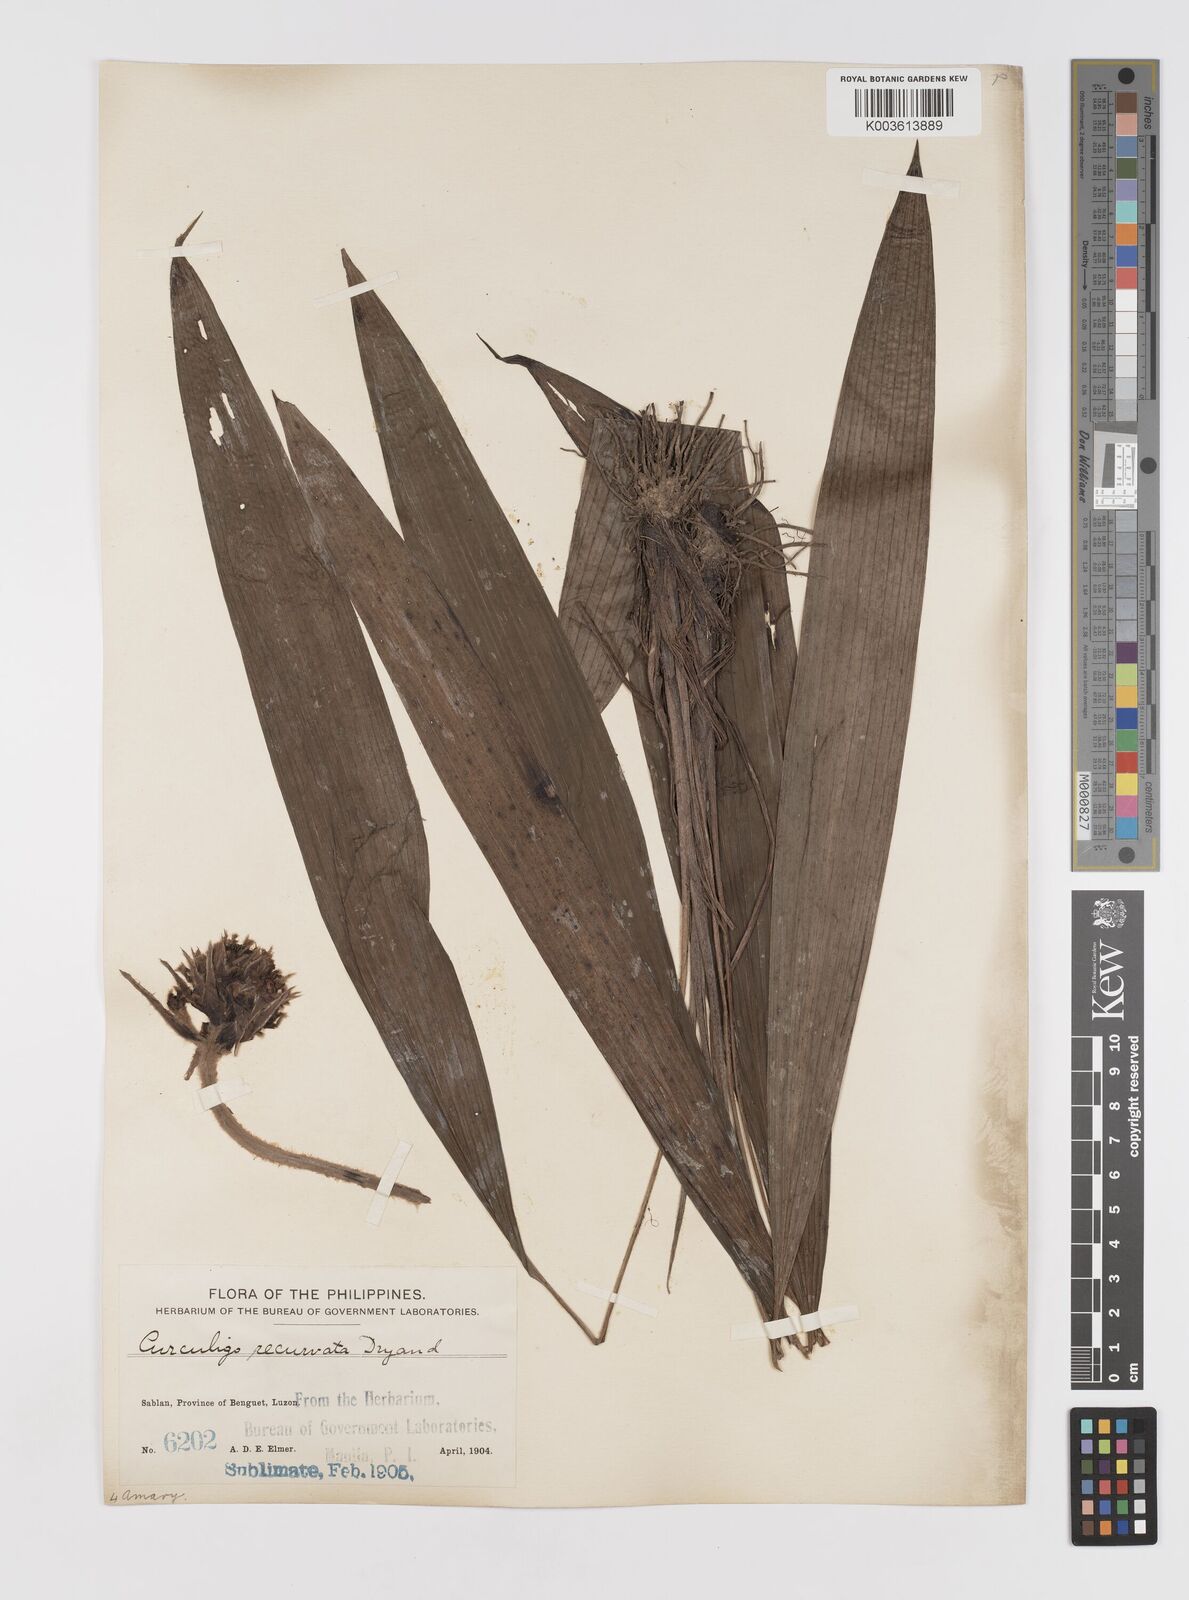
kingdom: Plantae
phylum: Tracheophyta
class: Liliopsida
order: Asparagales
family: Hypoxidaceae
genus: Curculigo
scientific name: Curculigo capitulata
